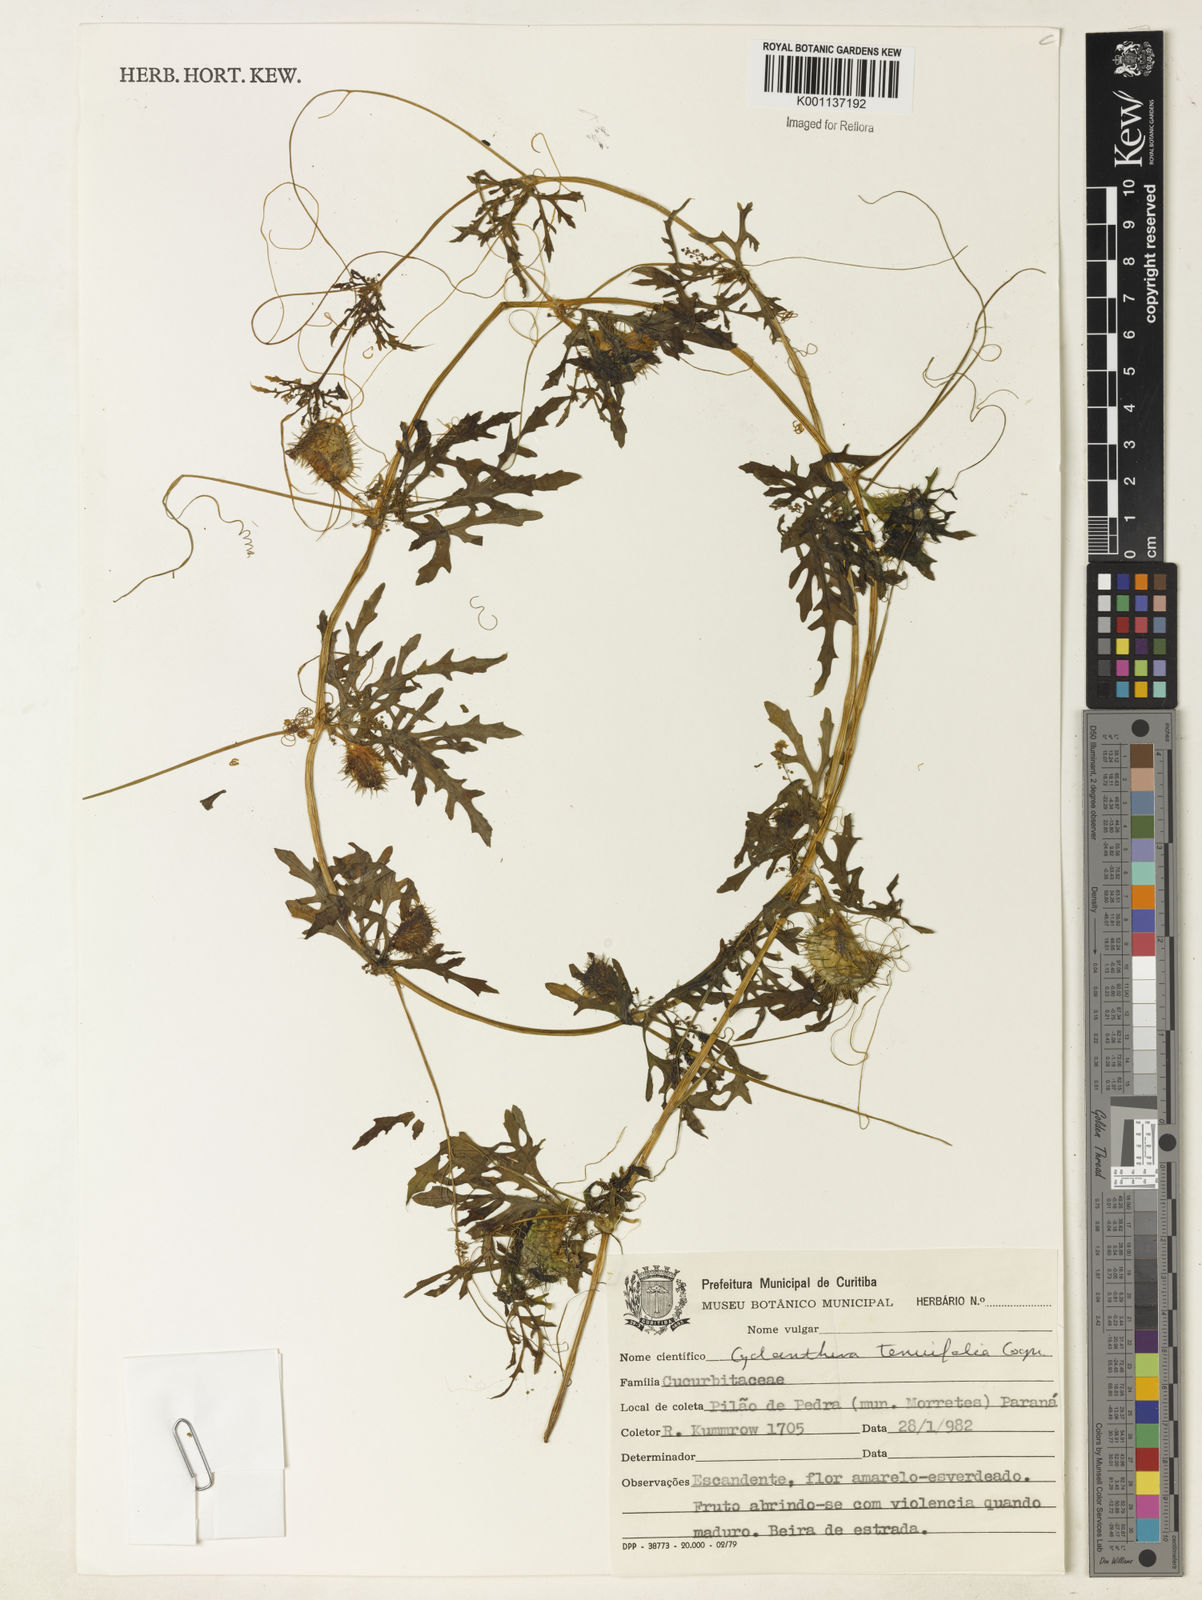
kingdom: Plantae
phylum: Tracheophyta
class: Magnoliopsida
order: Cucurbitales
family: Cucurbitaceae
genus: Cyclanthera
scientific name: Cyclanthera tenuifolia
